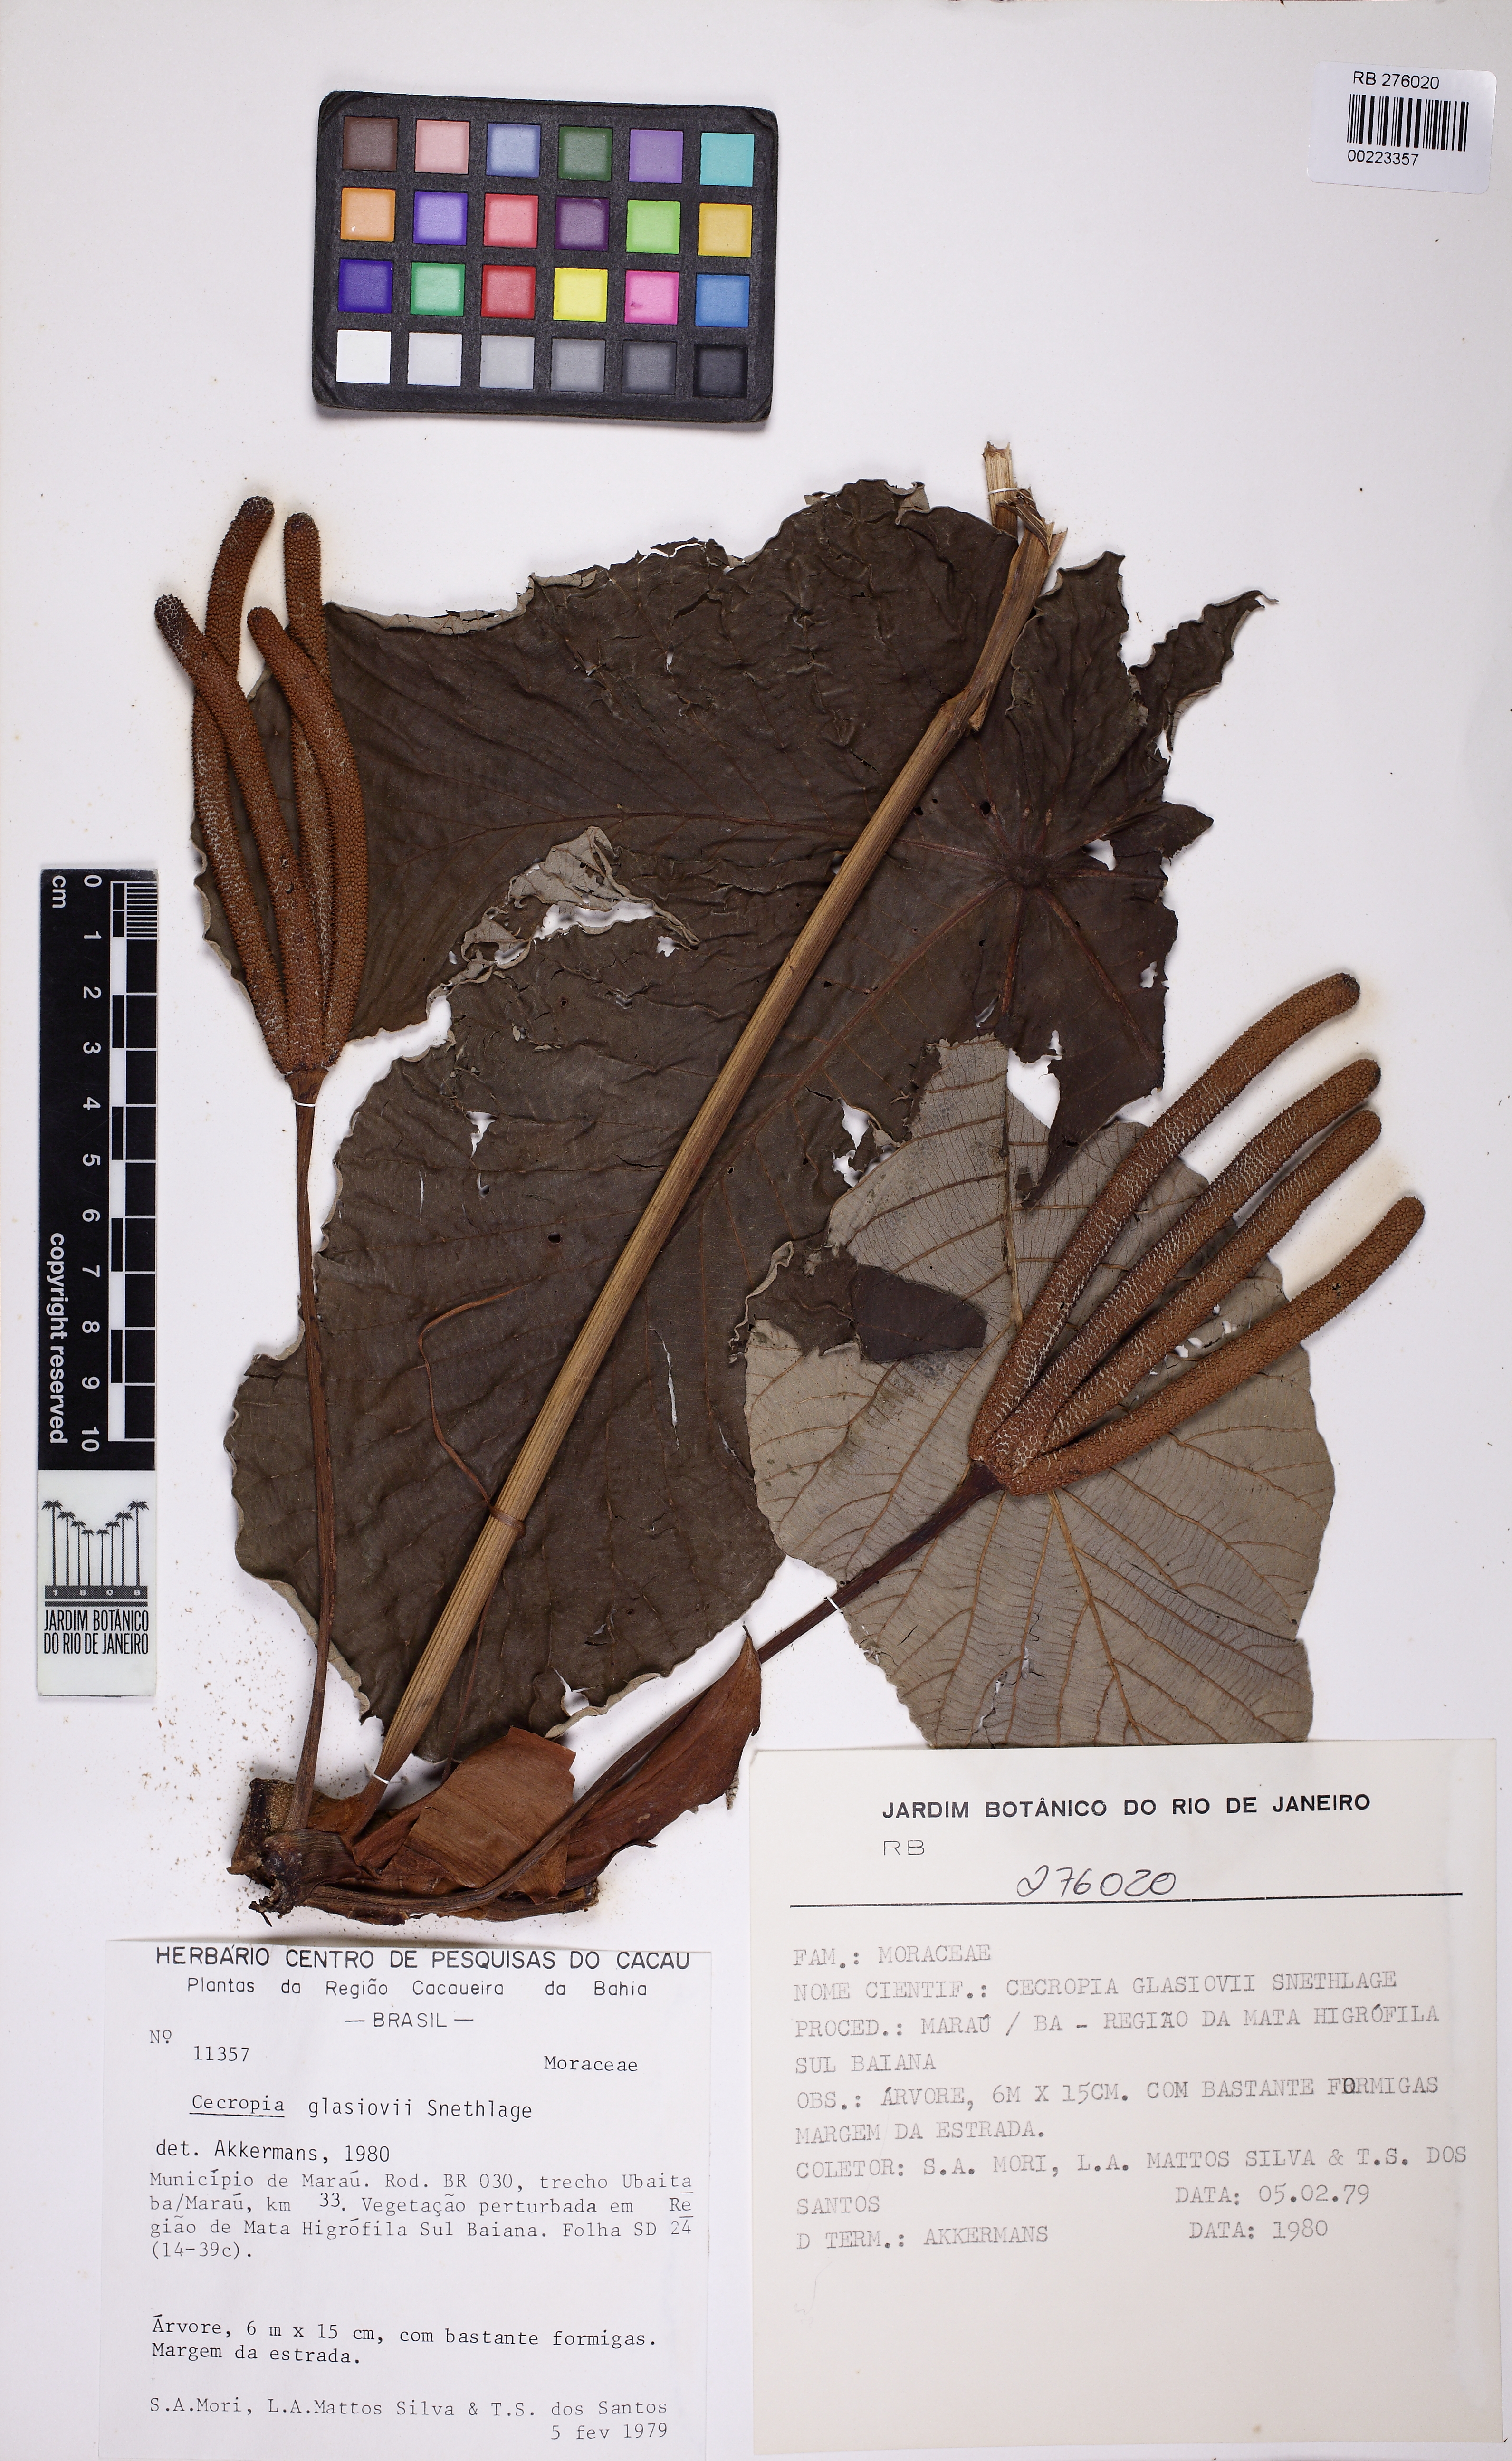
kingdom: Plantae
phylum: Tracheophyta
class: Magnoliopsida
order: Rosales
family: Urticaceae
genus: Cecropia
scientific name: Cecropia glaziovii
